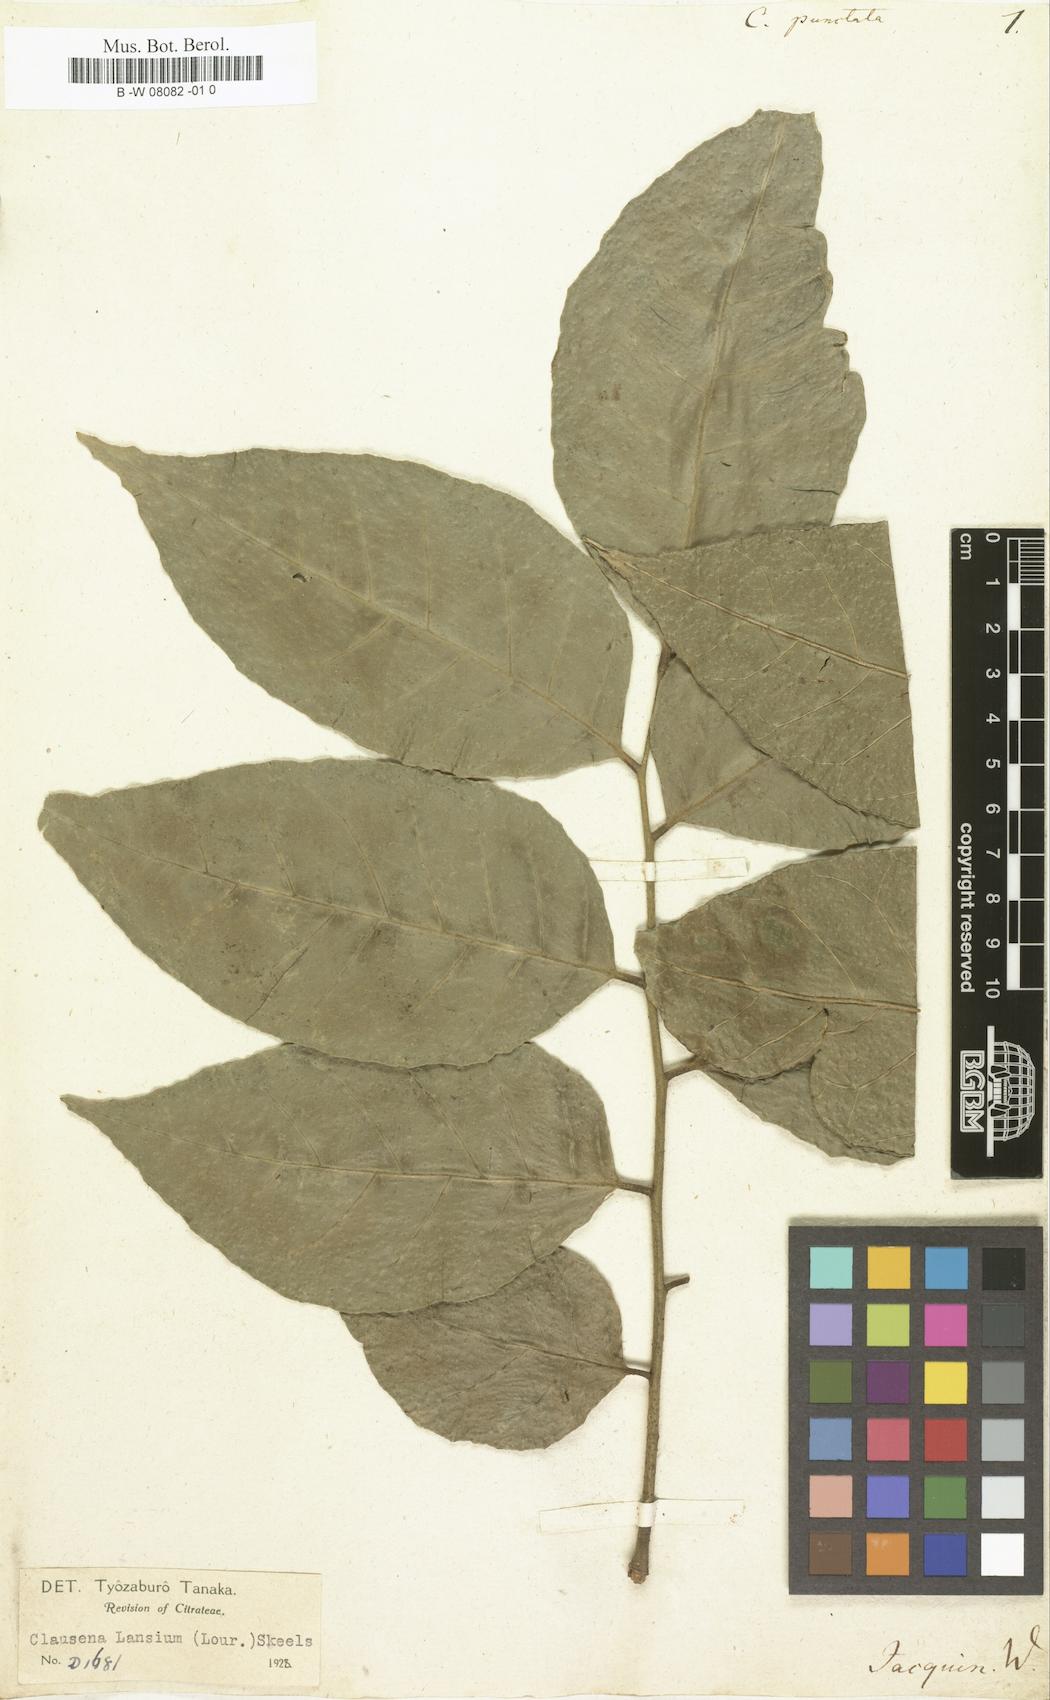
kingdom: Plantae
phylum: Tracheophyta
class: Magnoliopsida
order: Sapindales
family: Rutaceae
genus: Clausena
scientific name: Clausena lansium
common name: Wampi
